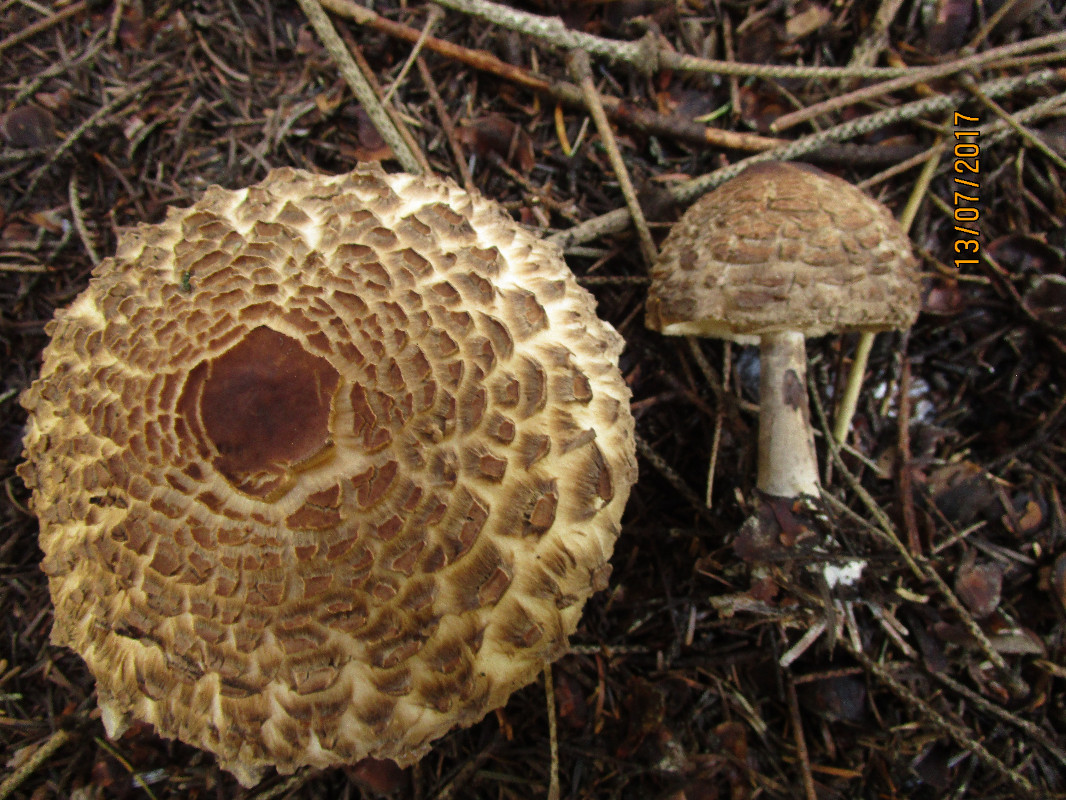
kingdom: Fungi
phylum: Basidiomycota
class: Agaricomycetes
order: Agaricales
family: Agaricaceae
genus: Chlorophyllum
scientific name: Chlorophyllum olivieri
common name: almindelig rabarberhat
